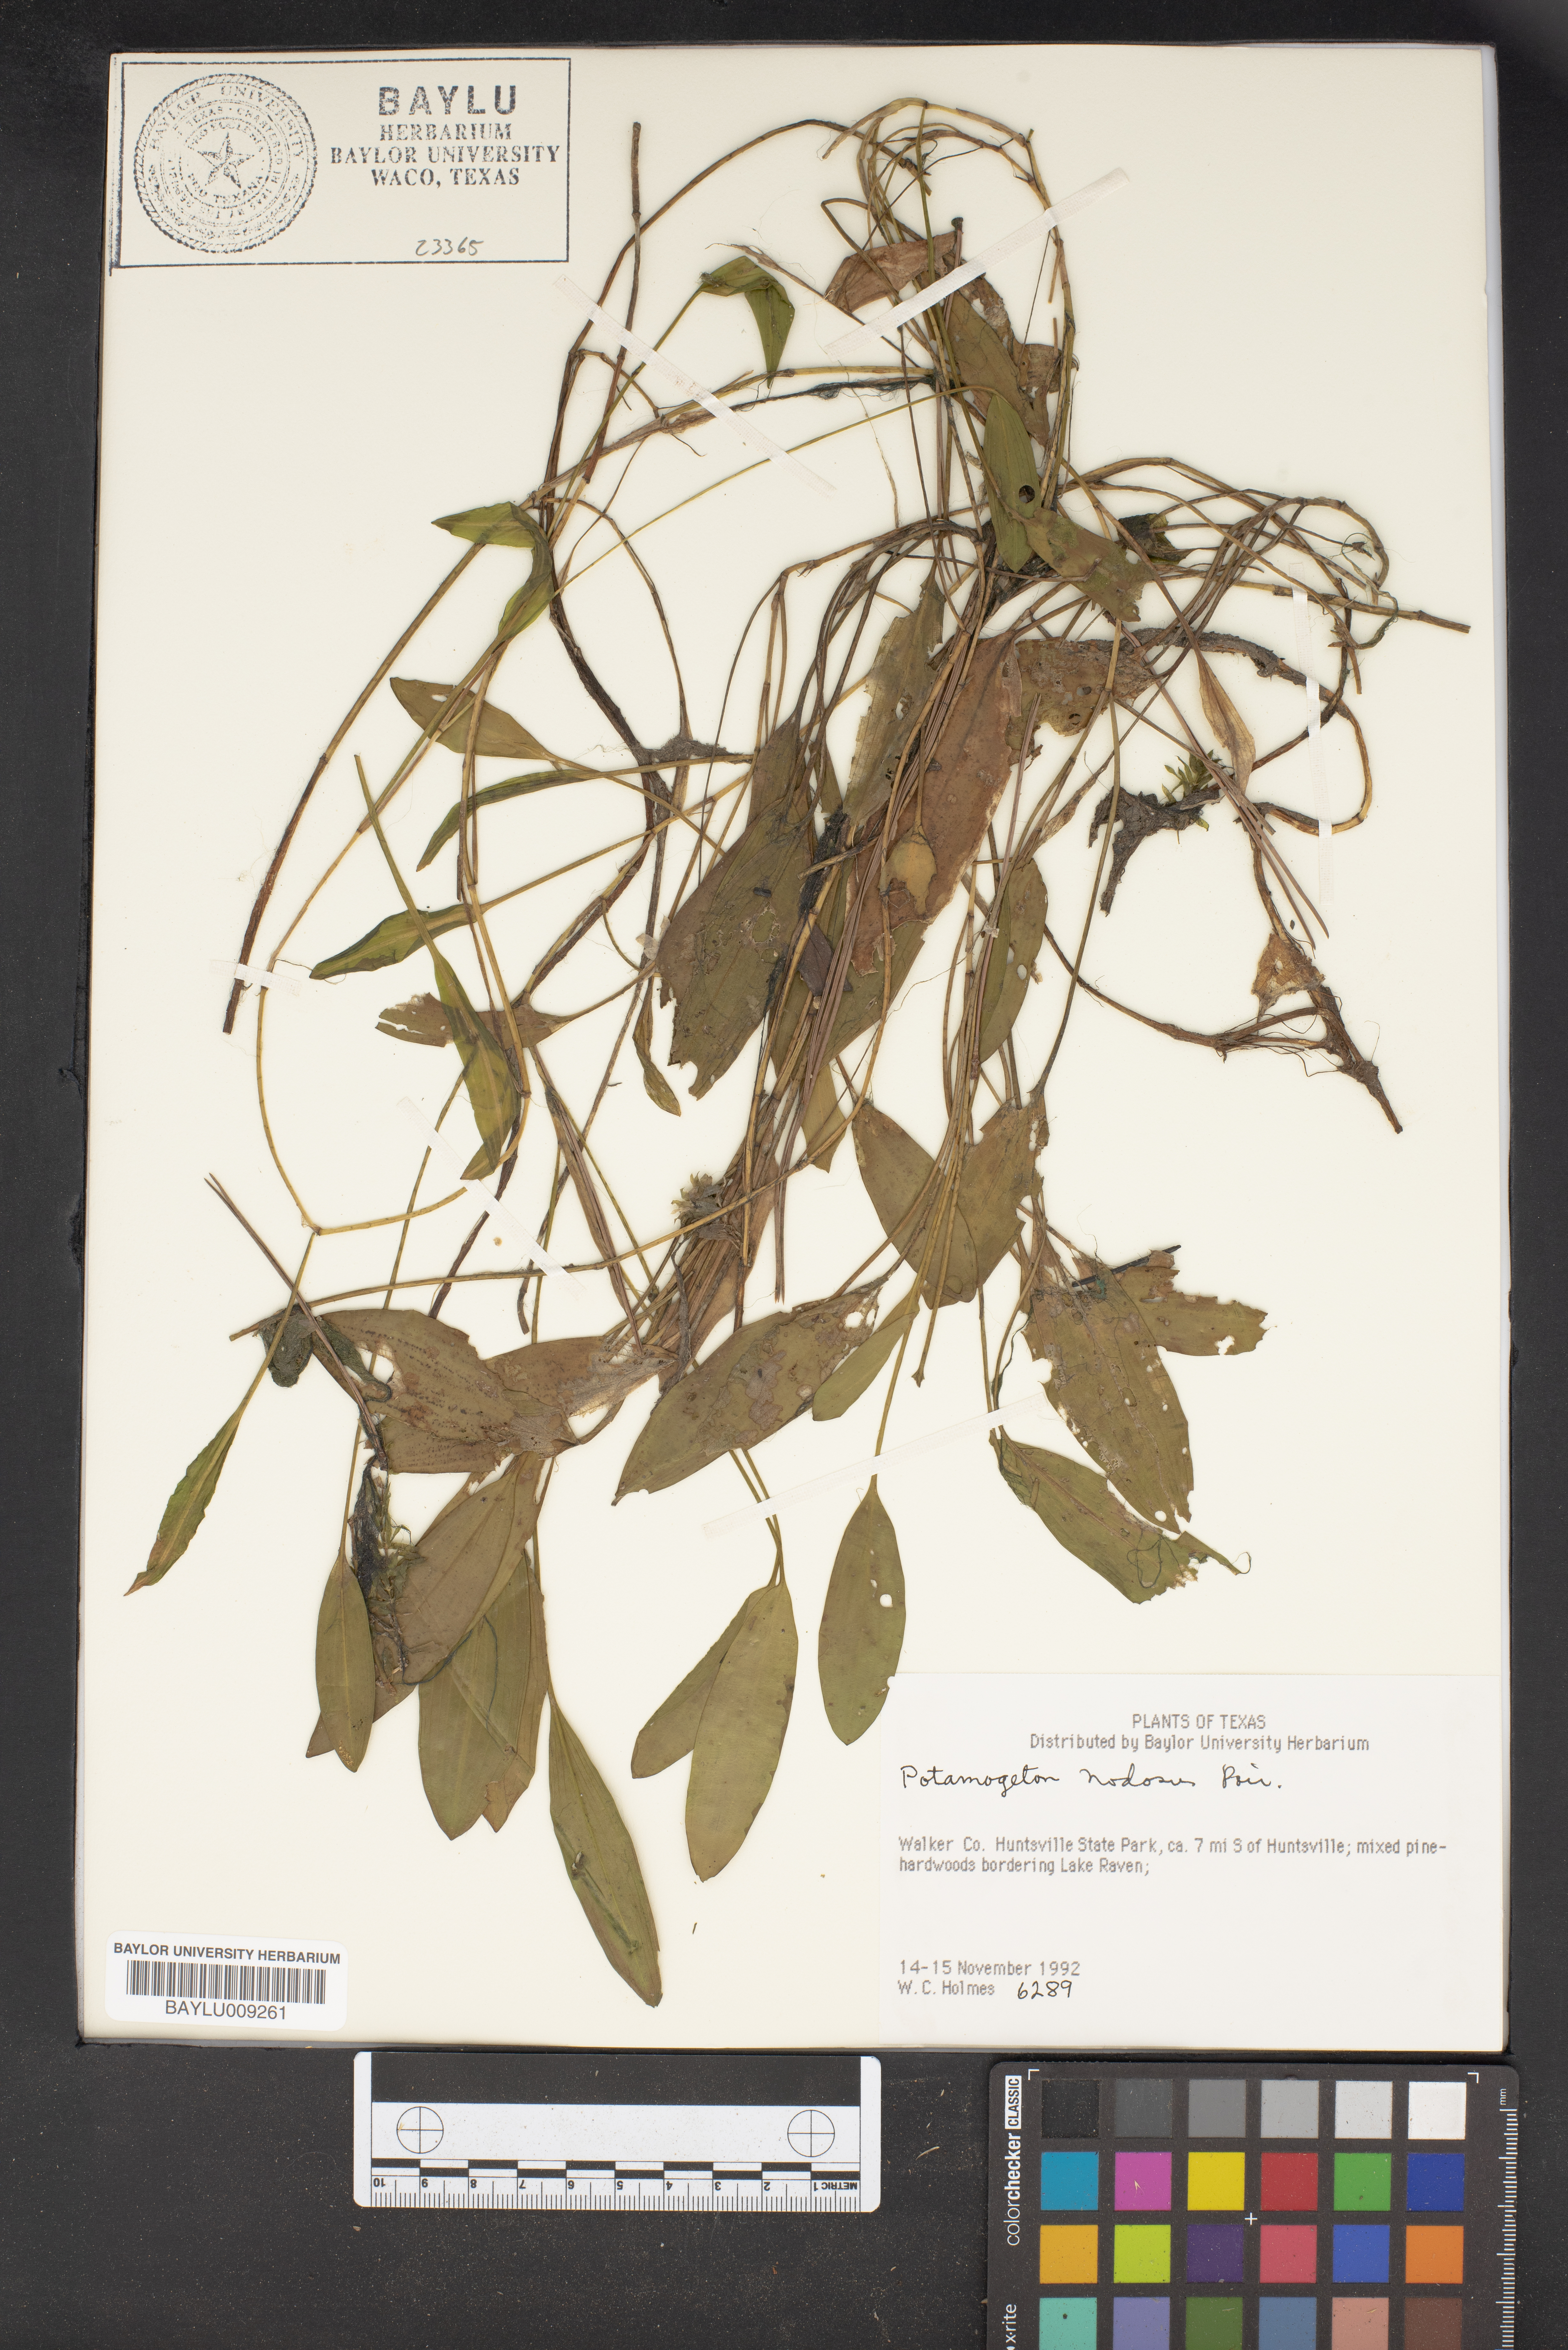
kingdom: Plantae
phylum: Tracheophyta
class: Liliopsida
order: Alismatales
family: Potamogetonaceae
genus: Potamogeton
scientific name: Potamogeton nodosus
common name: Loddon pondweed
